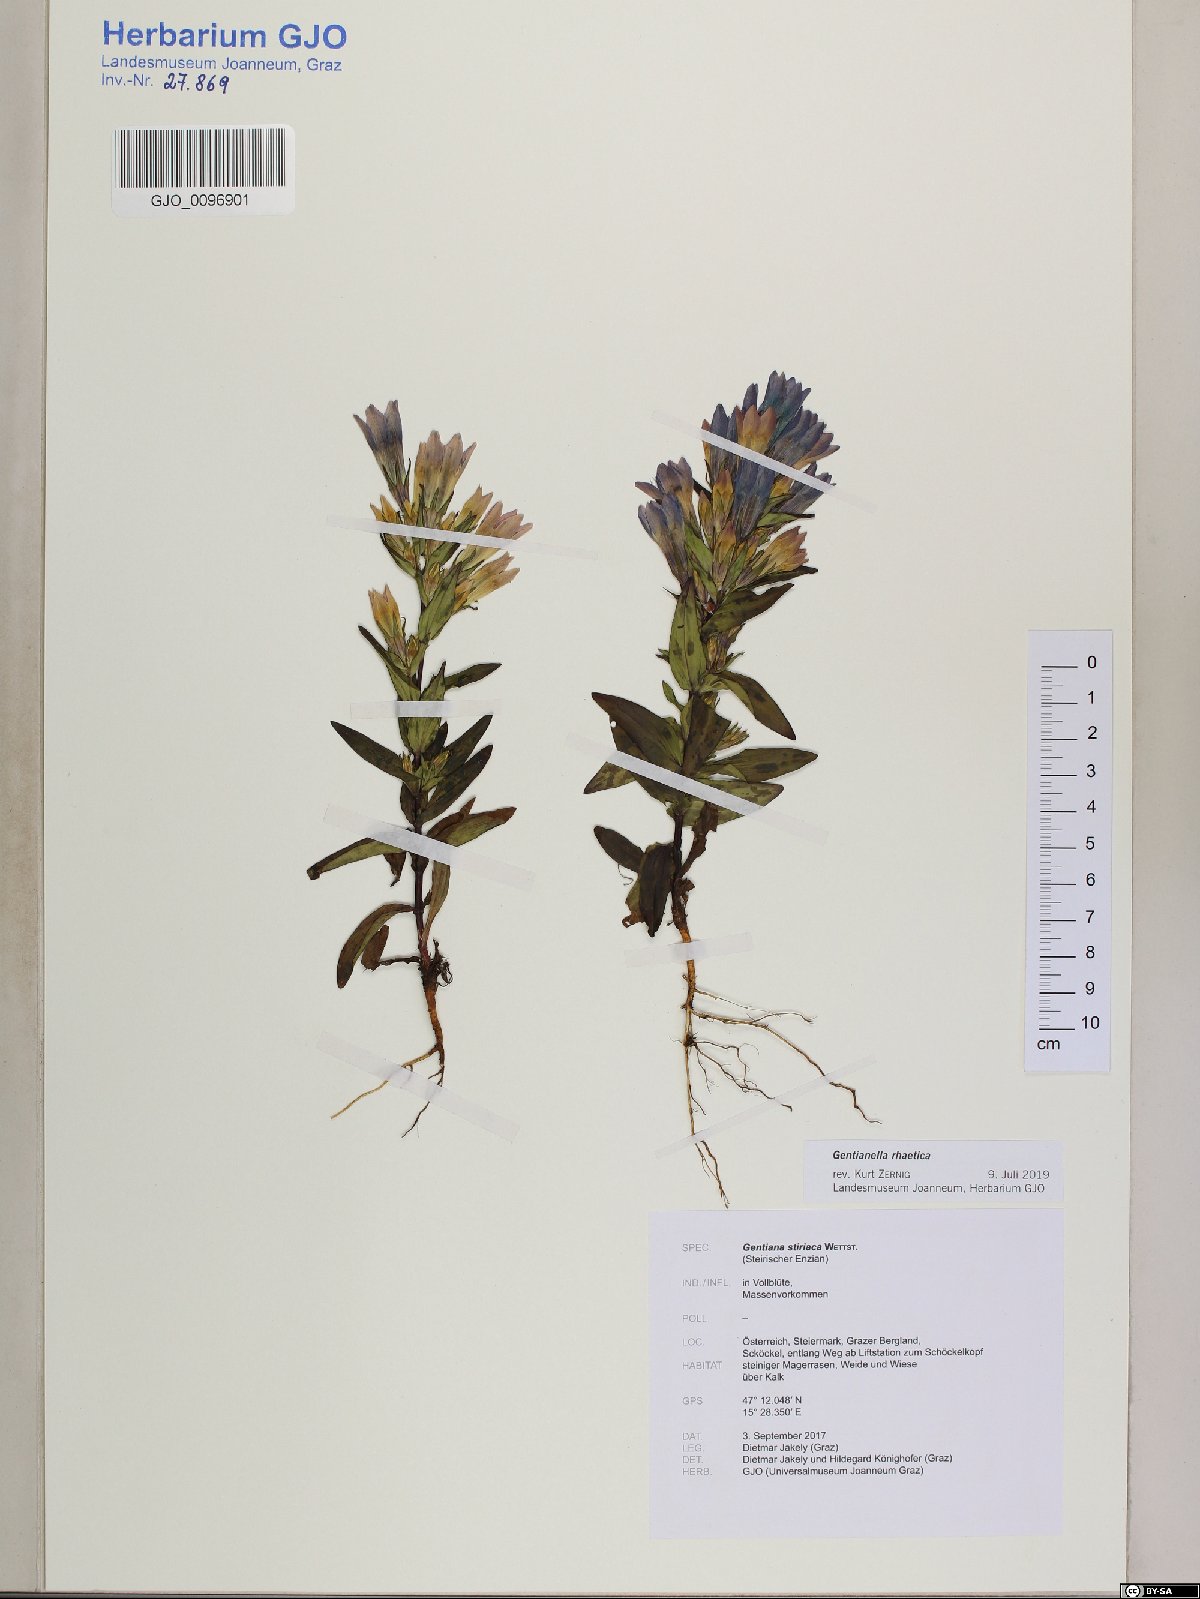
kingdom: Plantae
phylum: Tracheophyta
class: Magnoliopsida
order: Gentianales
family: Gentianaceae
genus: Gentianella
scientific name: Gentianella rhaetica
